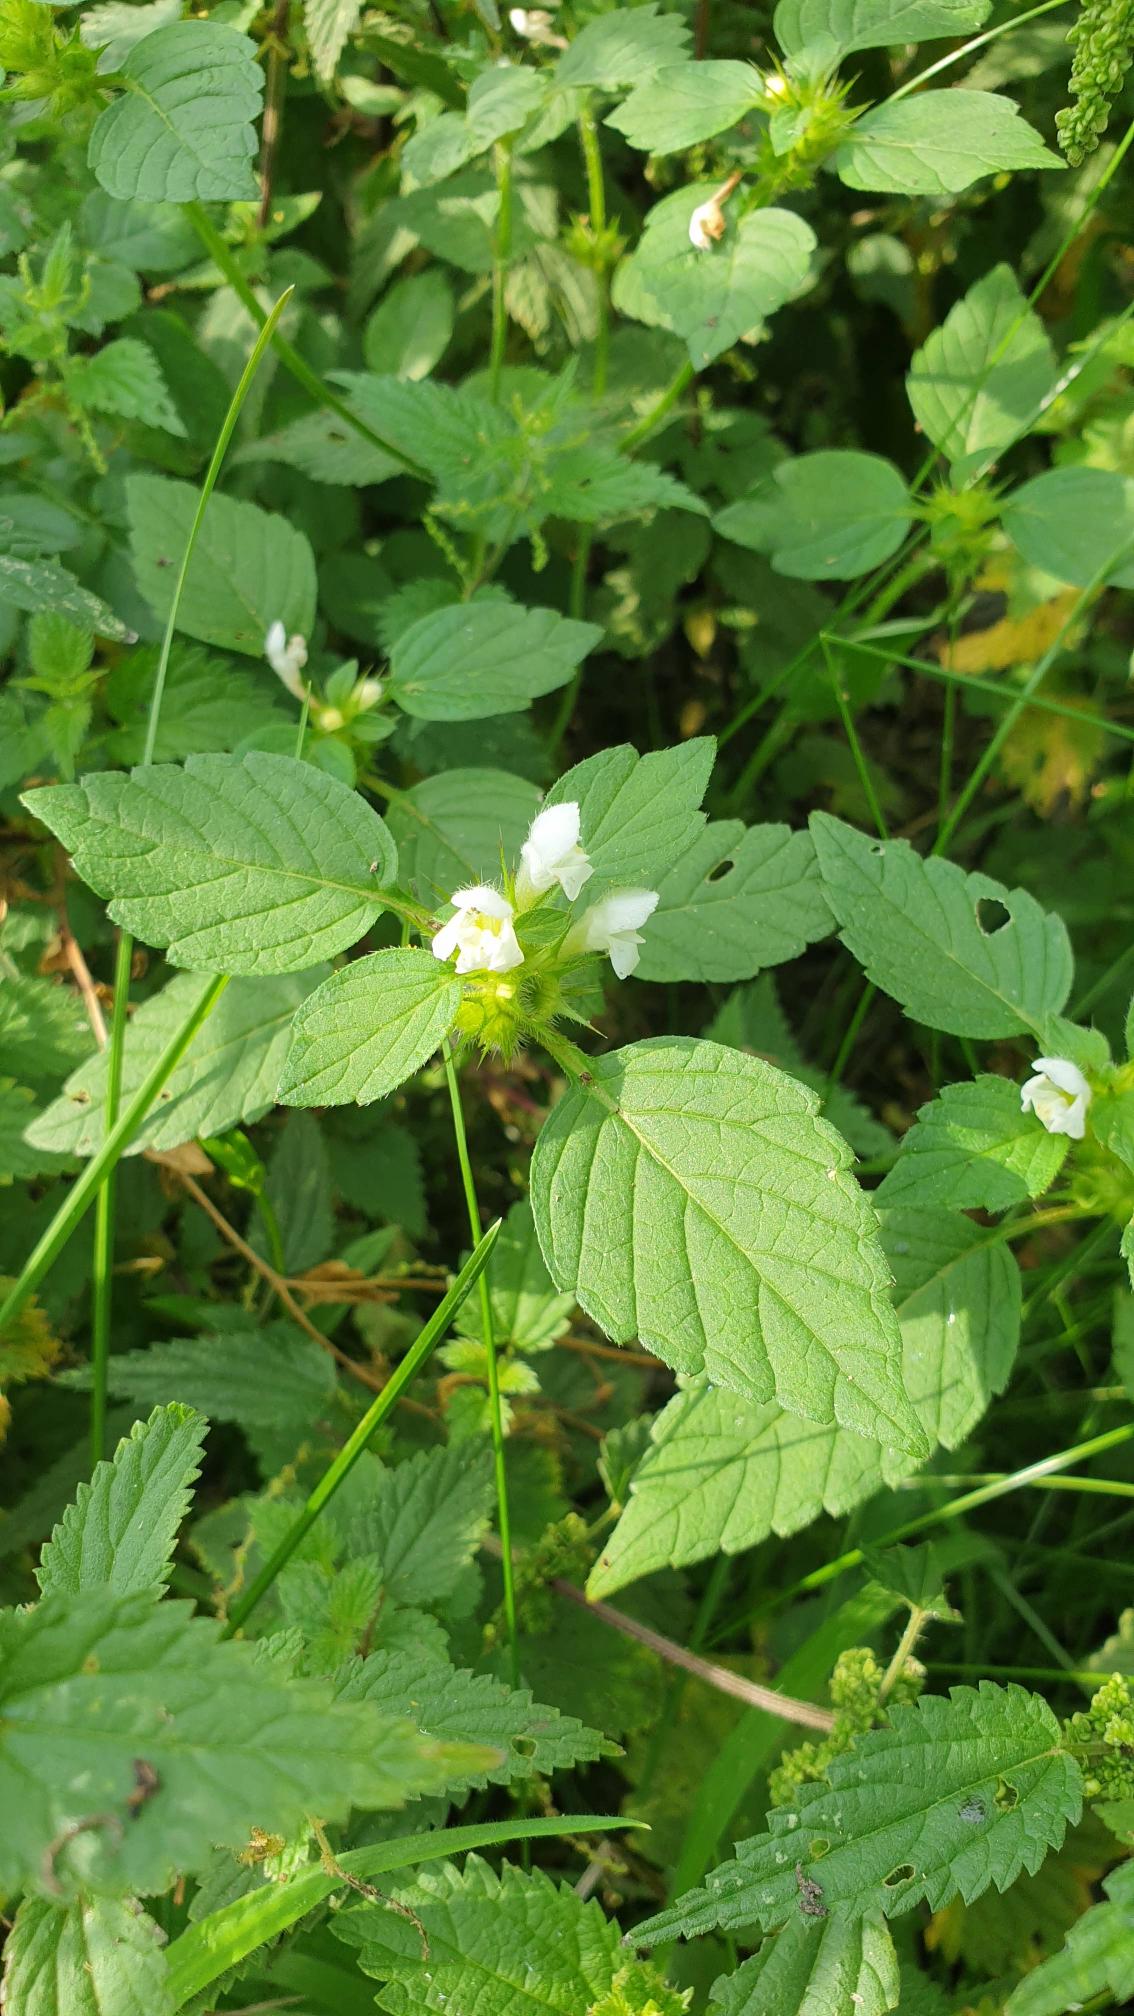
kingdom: Plantae
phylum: Tracheophyta
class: Magnoliopsida
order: Lamiales
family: Lamiaceae
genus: Galeopsis
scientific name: Galeopsis tetrahit
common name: Almindelig hanekro
